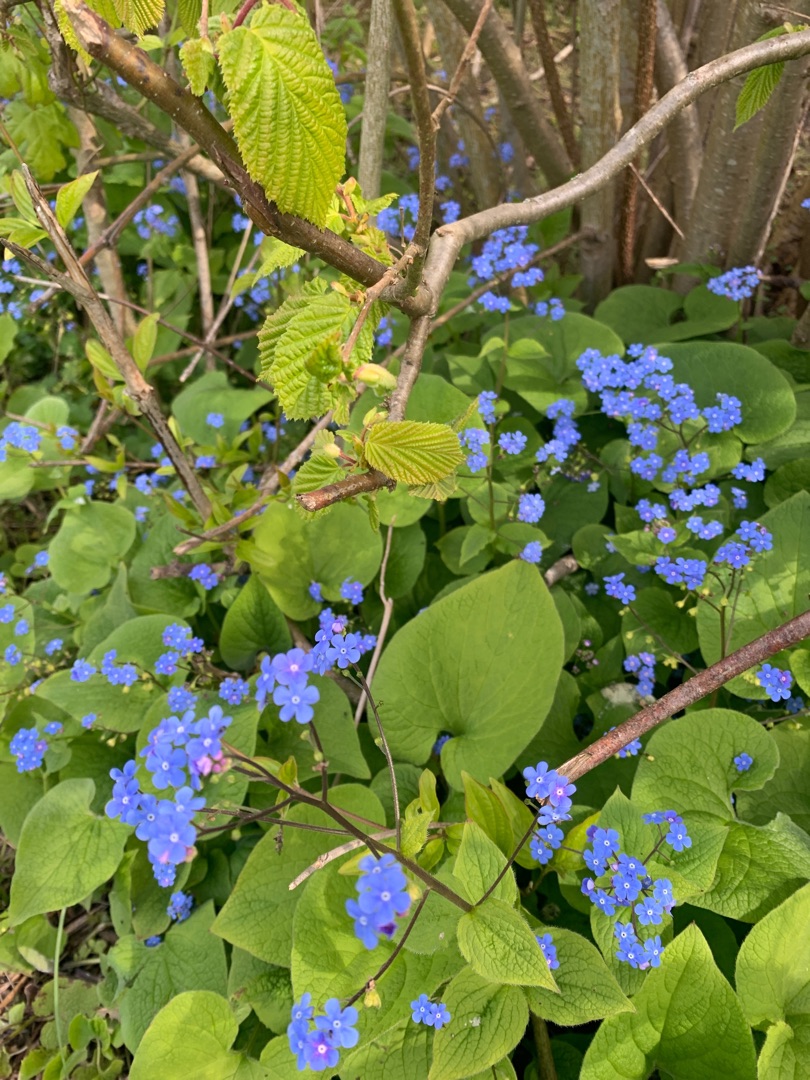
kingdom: Plantae
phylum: Tracheophyta
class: Magnoliopsida
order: Boraginales
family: Boraginaceae
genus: Brunnera
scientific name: Brunnera macrophylla
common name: Kærmindesøster
